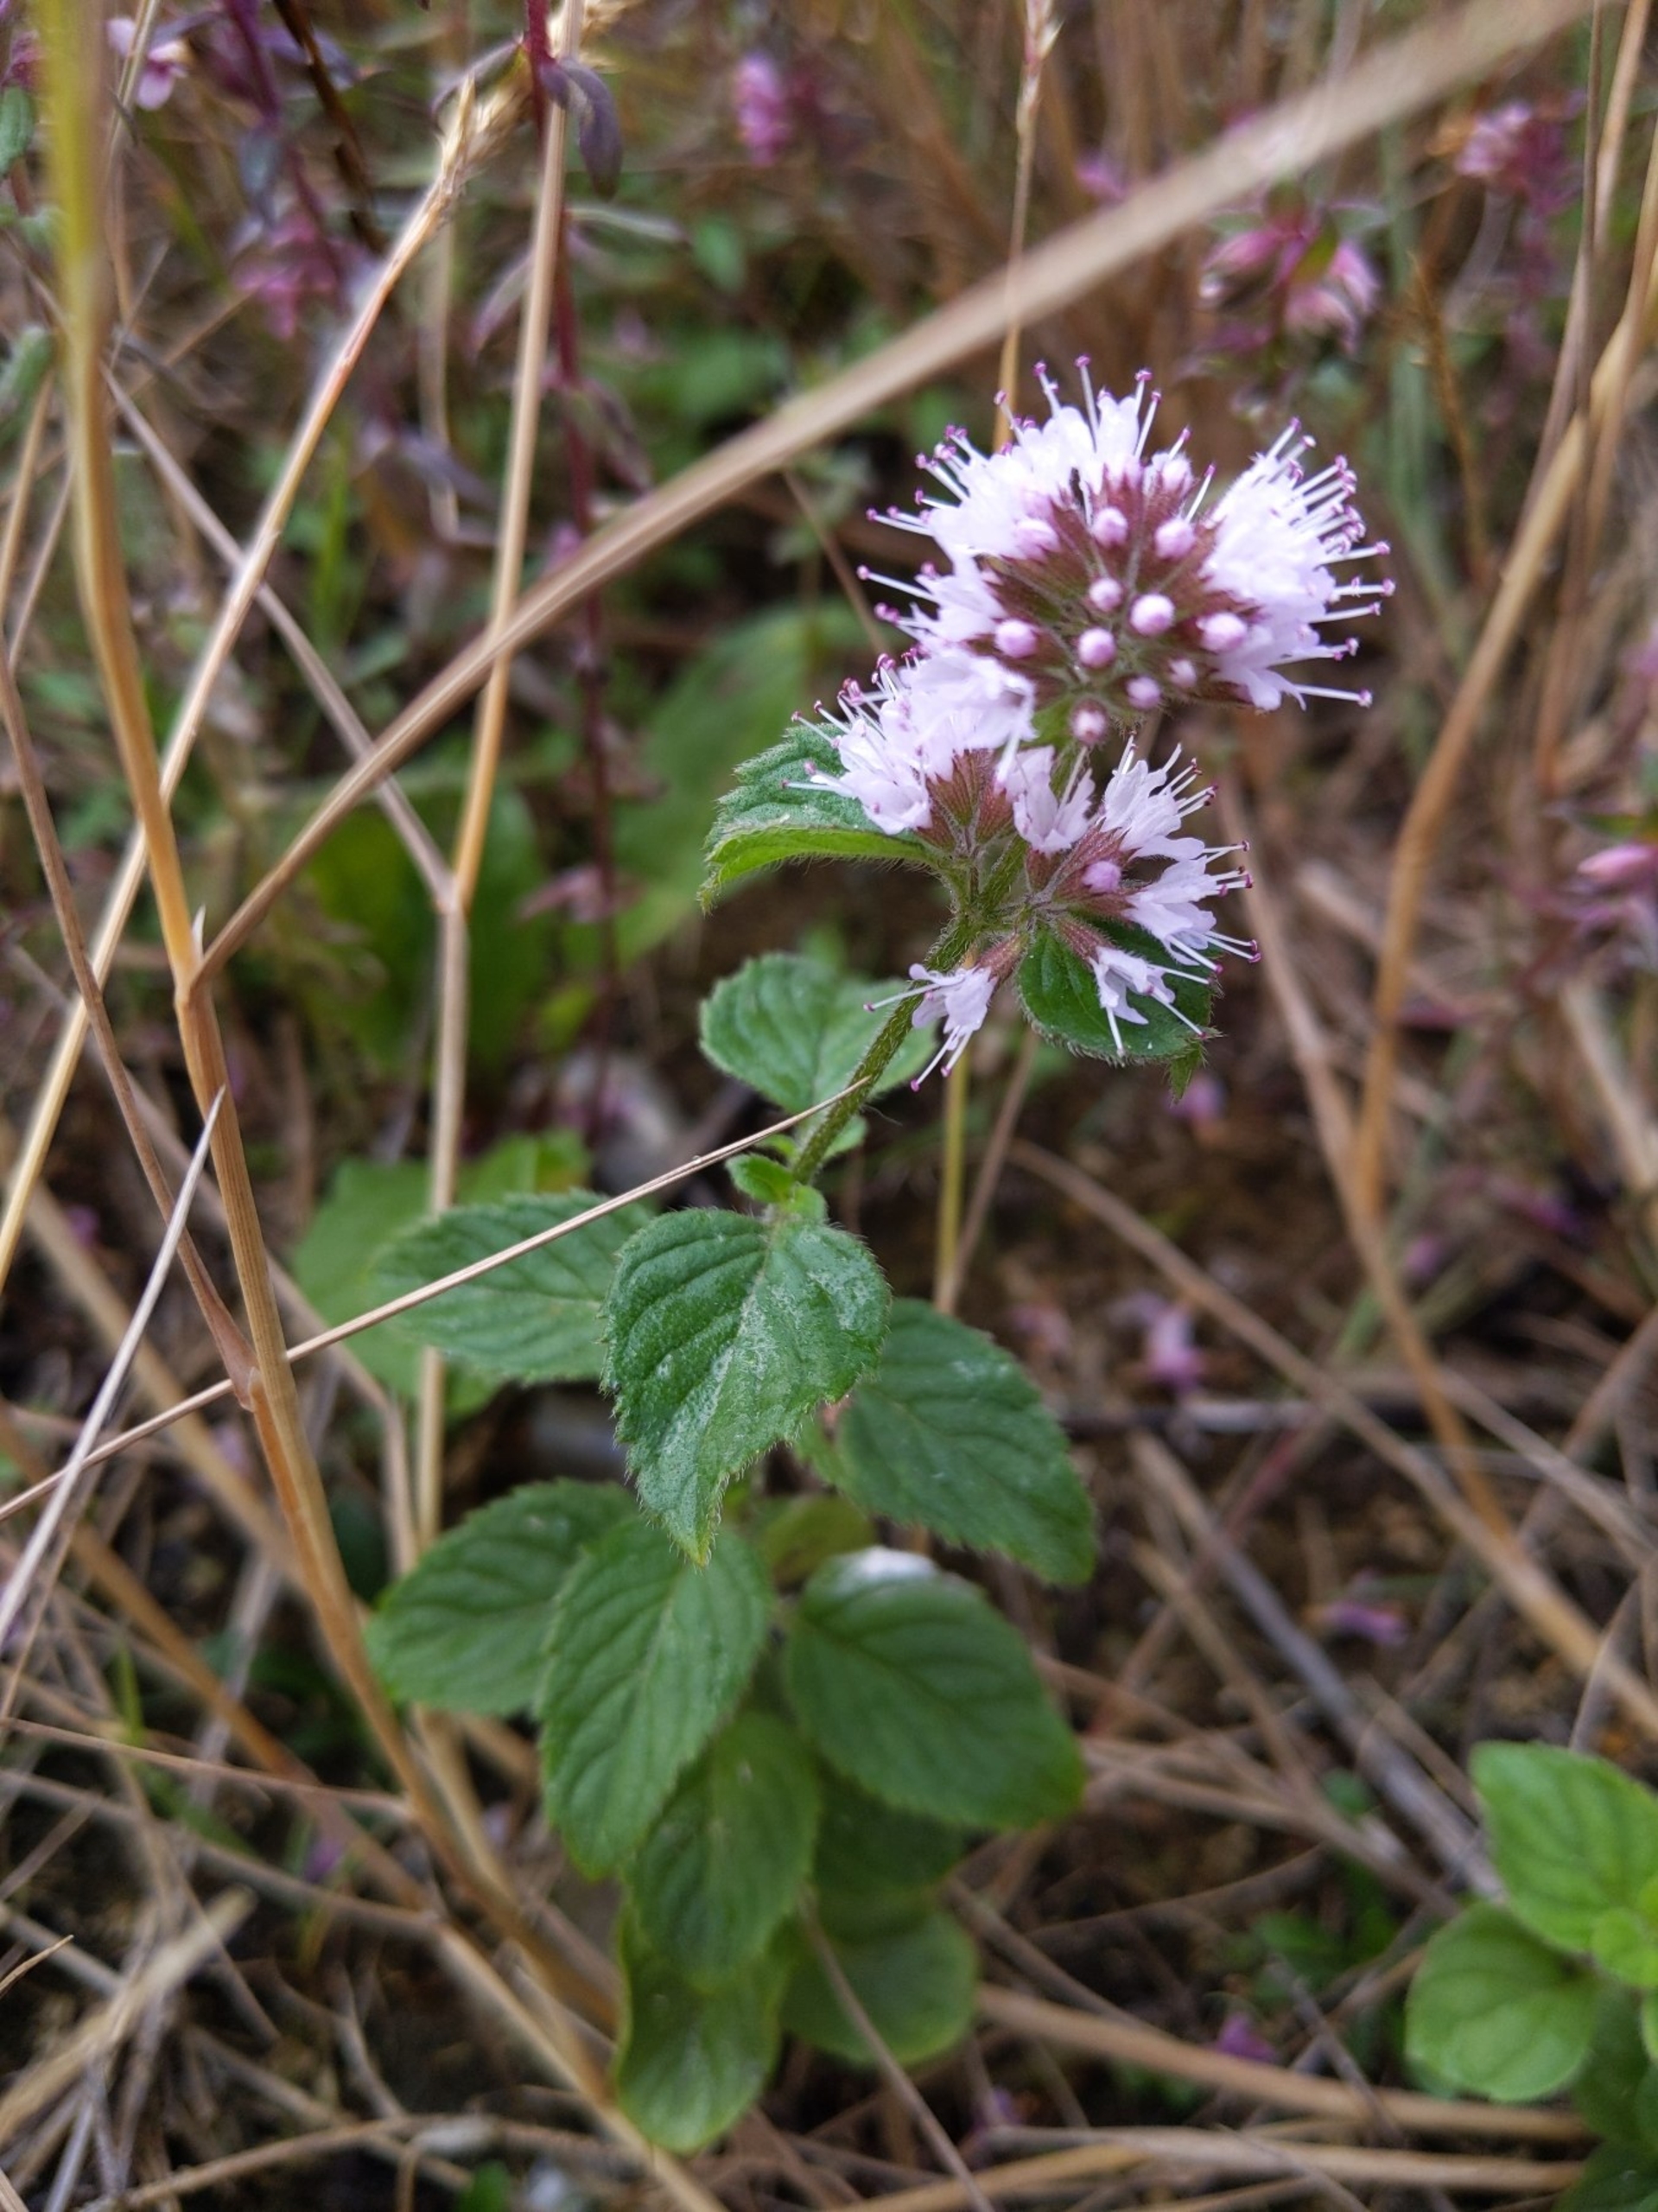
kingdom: Plantae
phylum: Tracheophyta
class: Magnoliopsida
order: Lamiales
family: Lamiaceae
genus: Mentha
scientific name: Mentha aquatica
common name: Vand-mynte
